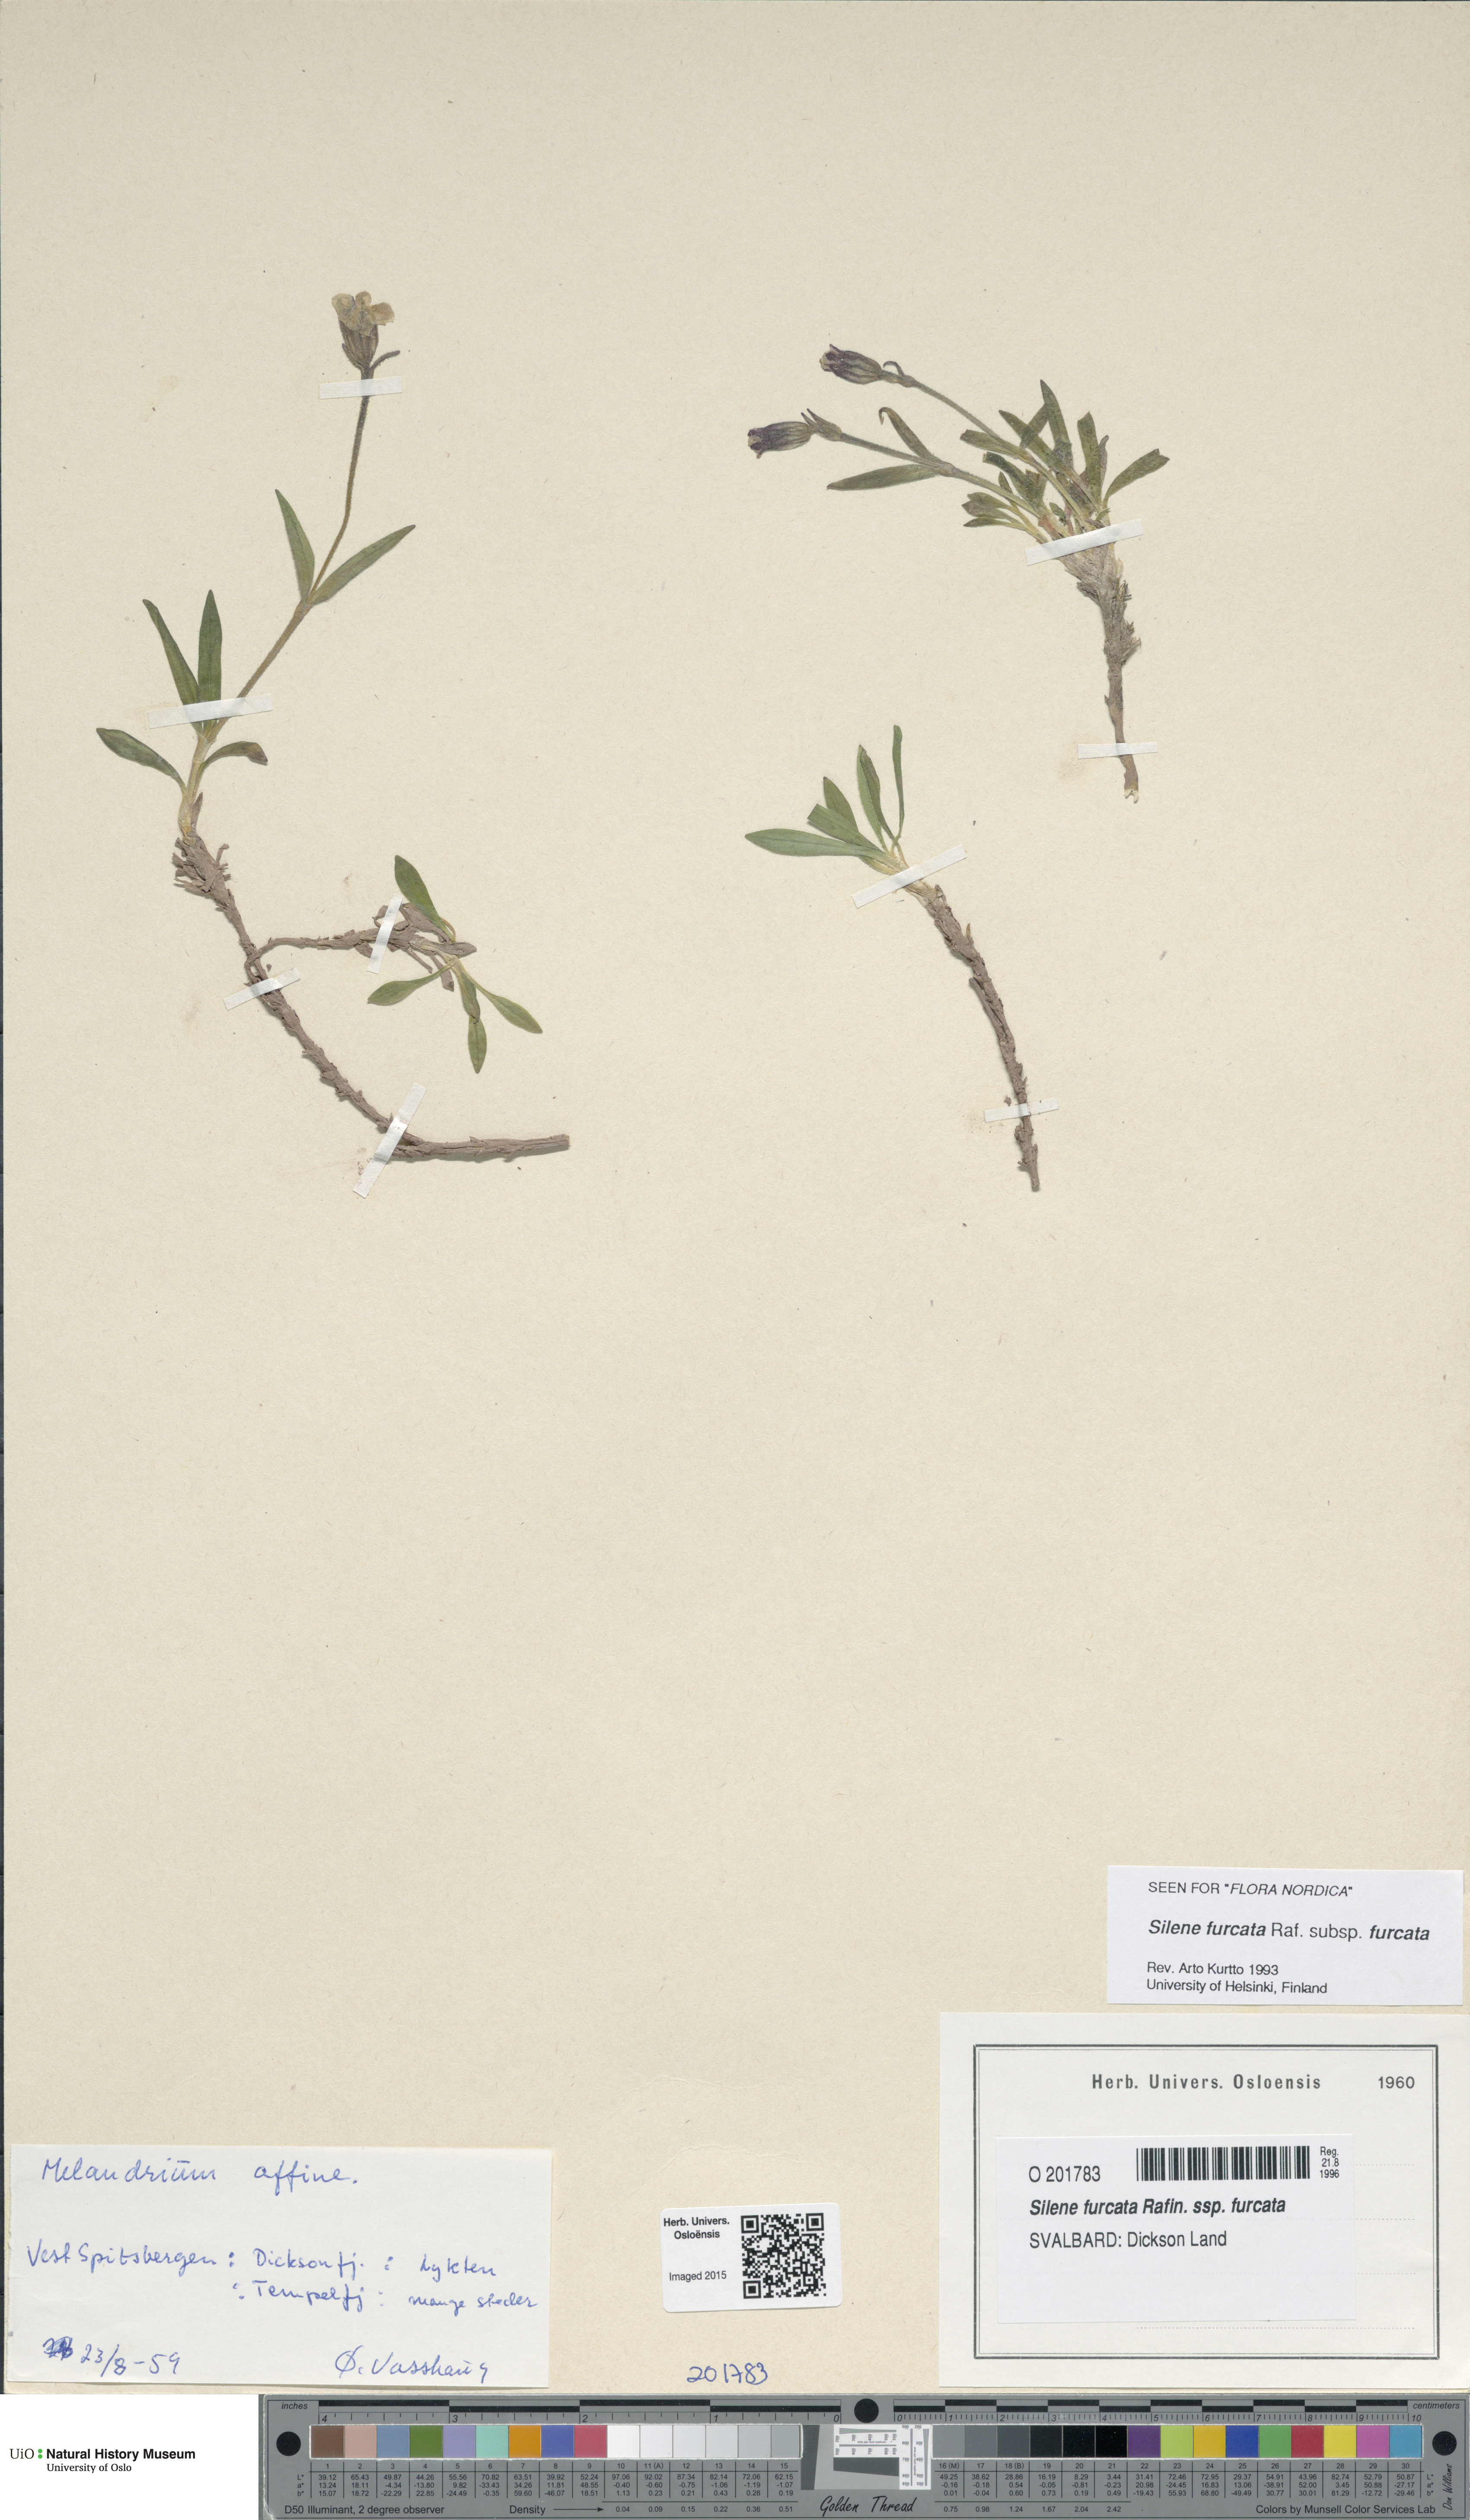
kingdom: Plantae
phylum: Tracheophyta
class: Magnoliopsida
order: Caryophyllales
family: Caryophyllaceae
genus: Silene
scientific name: Silene involucrata
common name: Greater arctic campion
